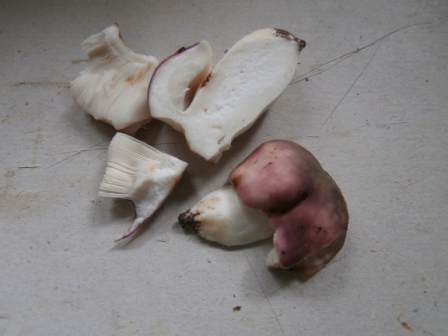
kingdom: Fungi
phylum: Basidiomycota
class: Agaricomycetes
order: Russulales
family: Russulaceae
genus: Russula
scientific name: Russula cyanoxantha
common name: broget skørhat
